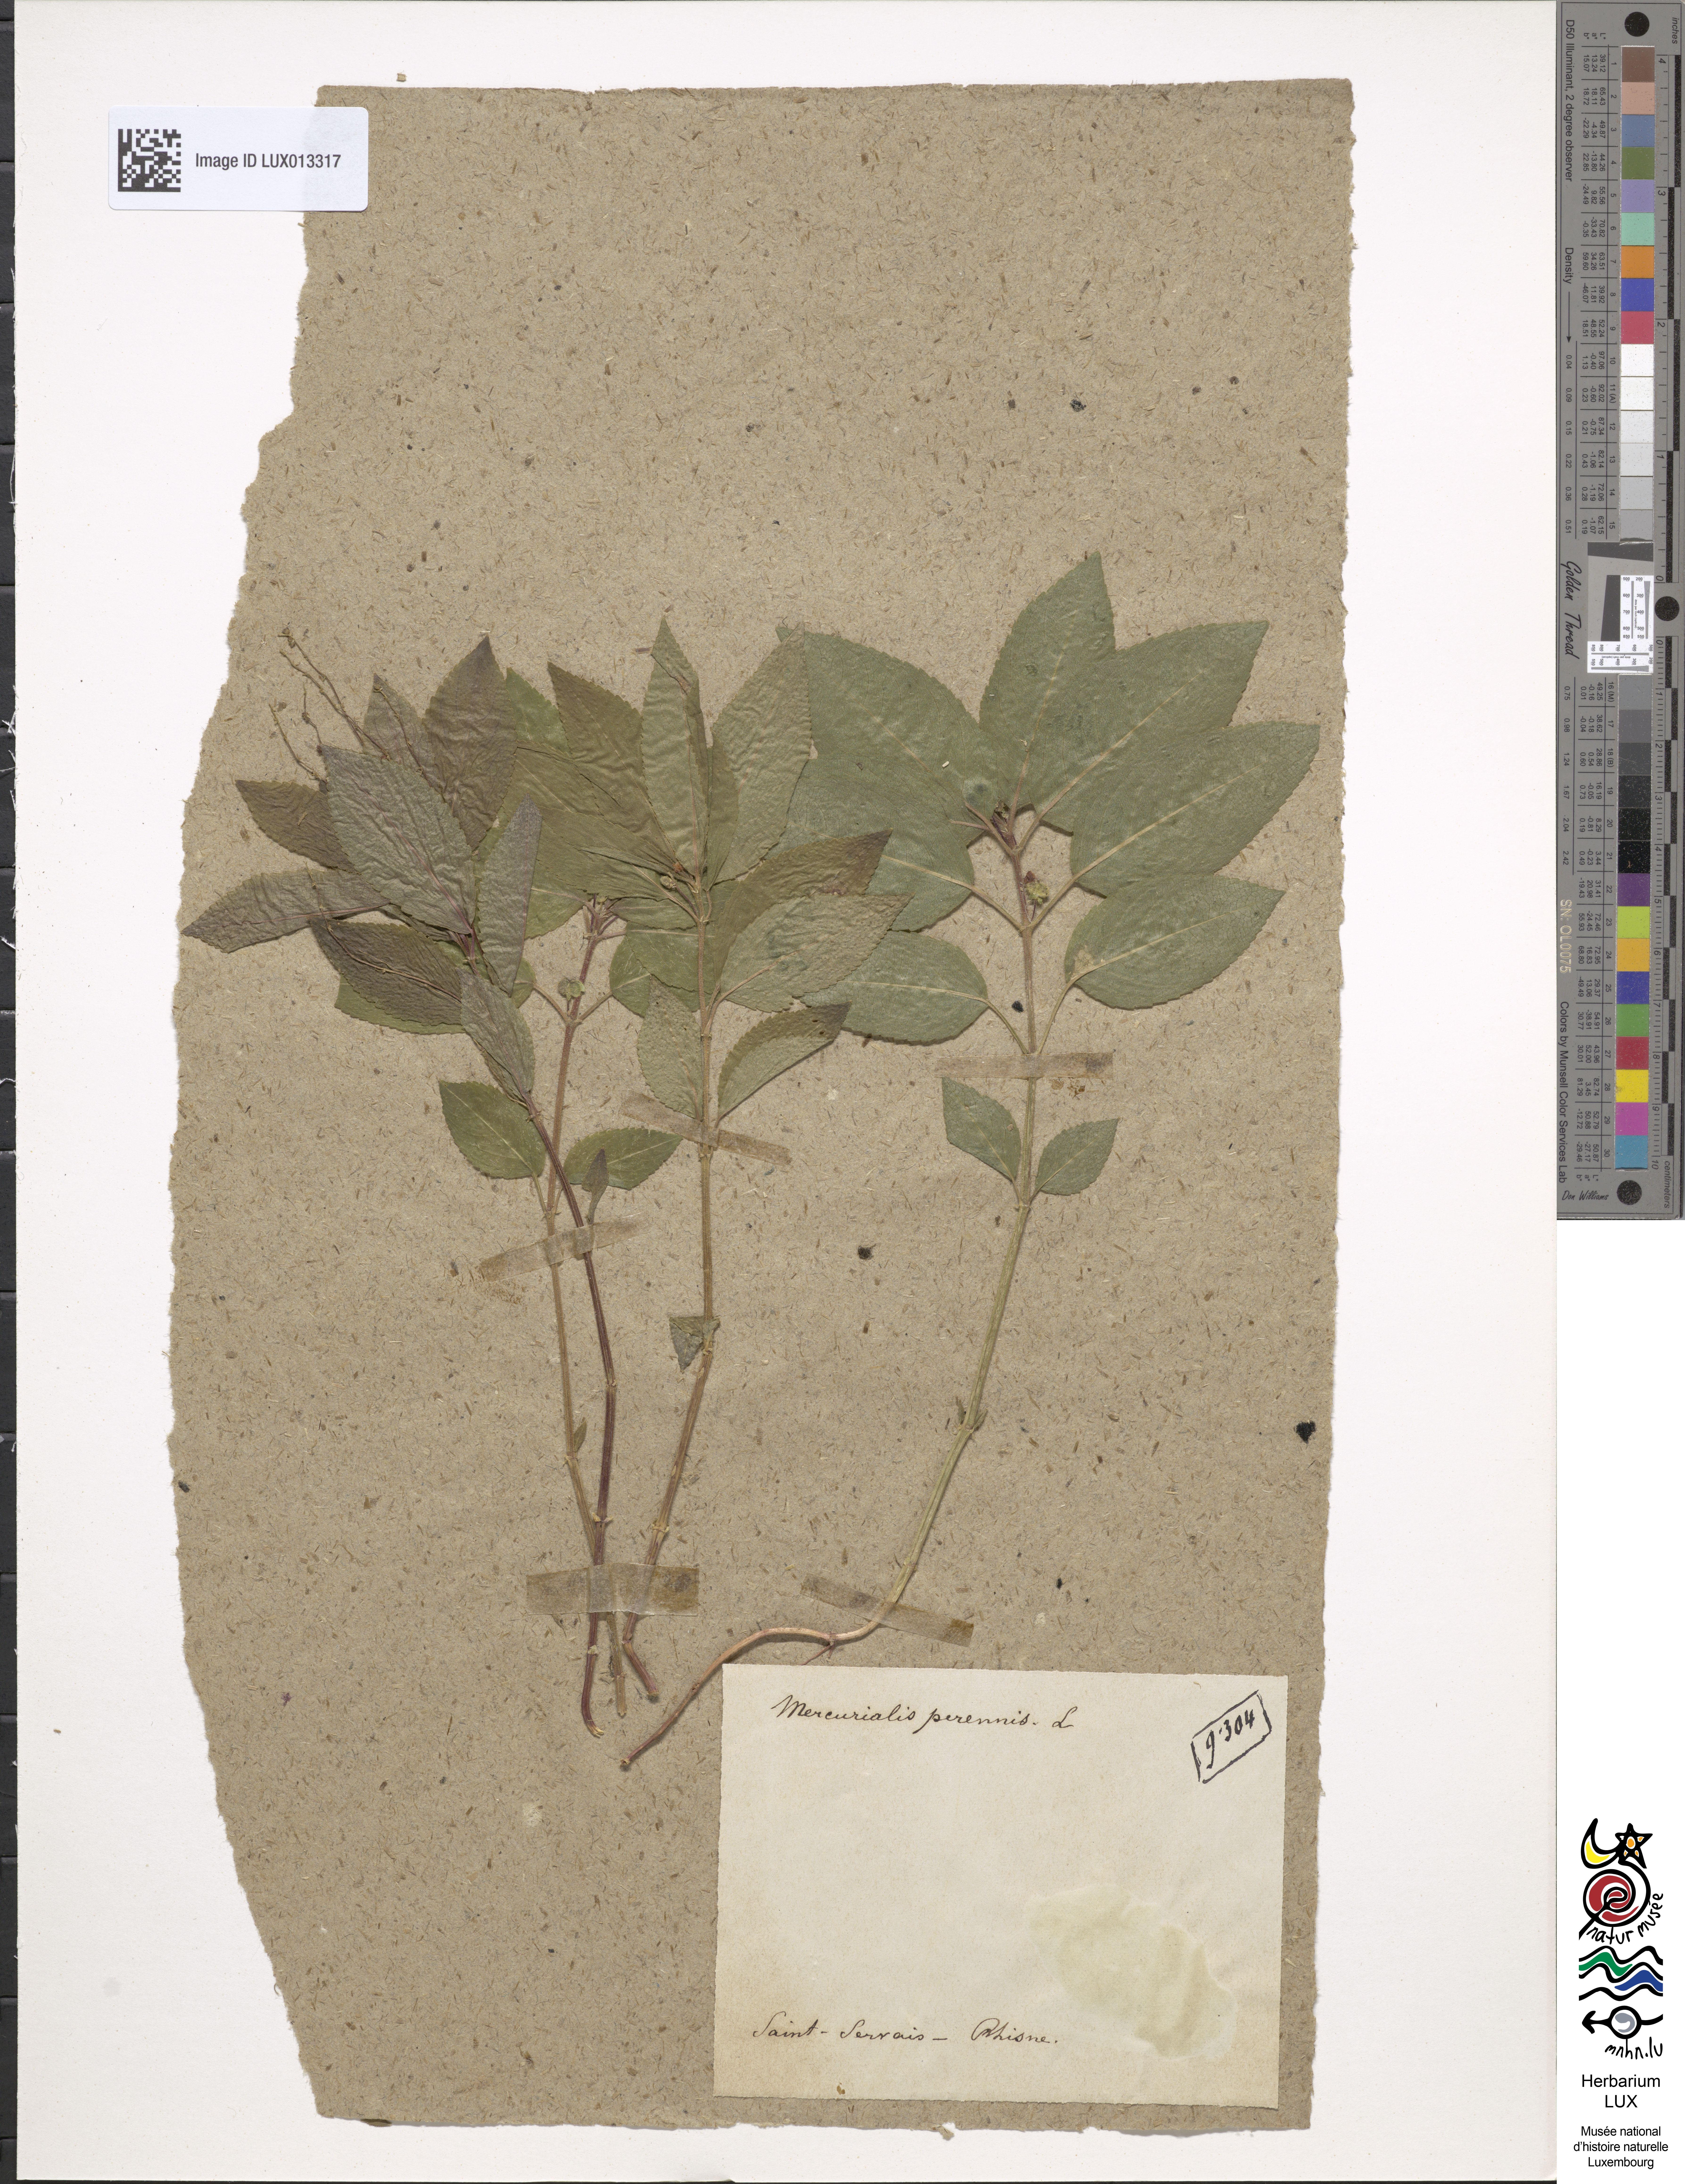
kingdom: Plantae
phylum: Tracheophyta
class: Magnoliopsida
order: Malpighiales
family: Euphorbiaceae
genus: Mercurialis
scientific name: Mercurialis perennis
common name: Dog mercury
